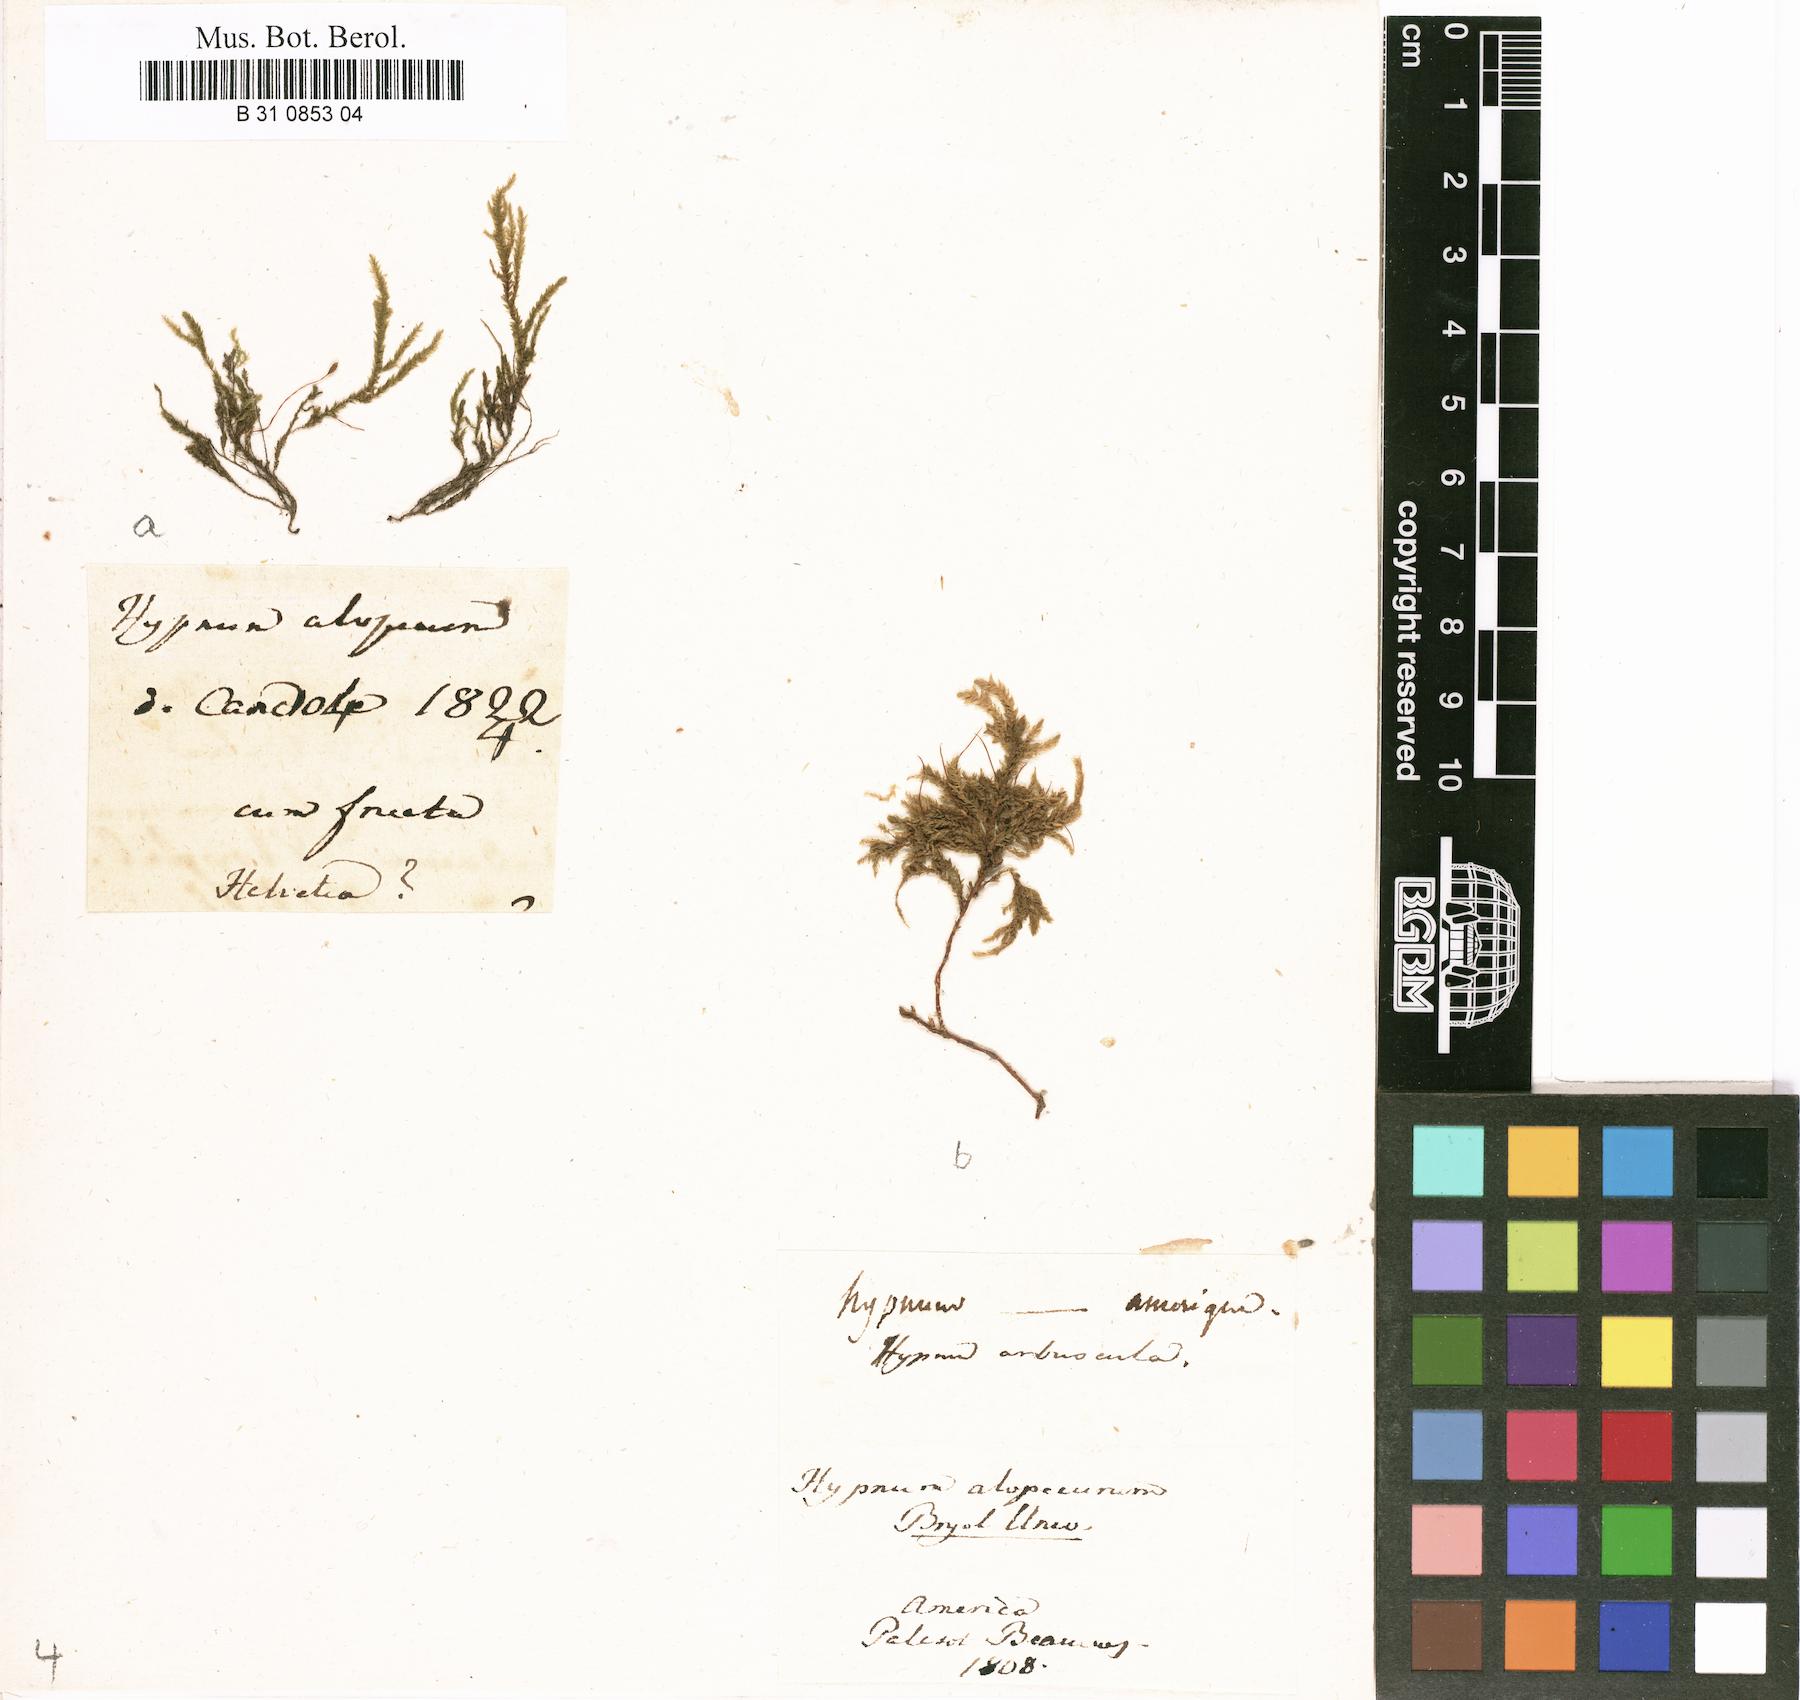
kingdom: Plantae
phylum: Bryophyta
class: Bryopsida
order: Hypnales
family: Neckeraceae
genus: Thamnobryum
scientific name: Thamnobryum alopecurum
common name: Fox-tail feather-moss
